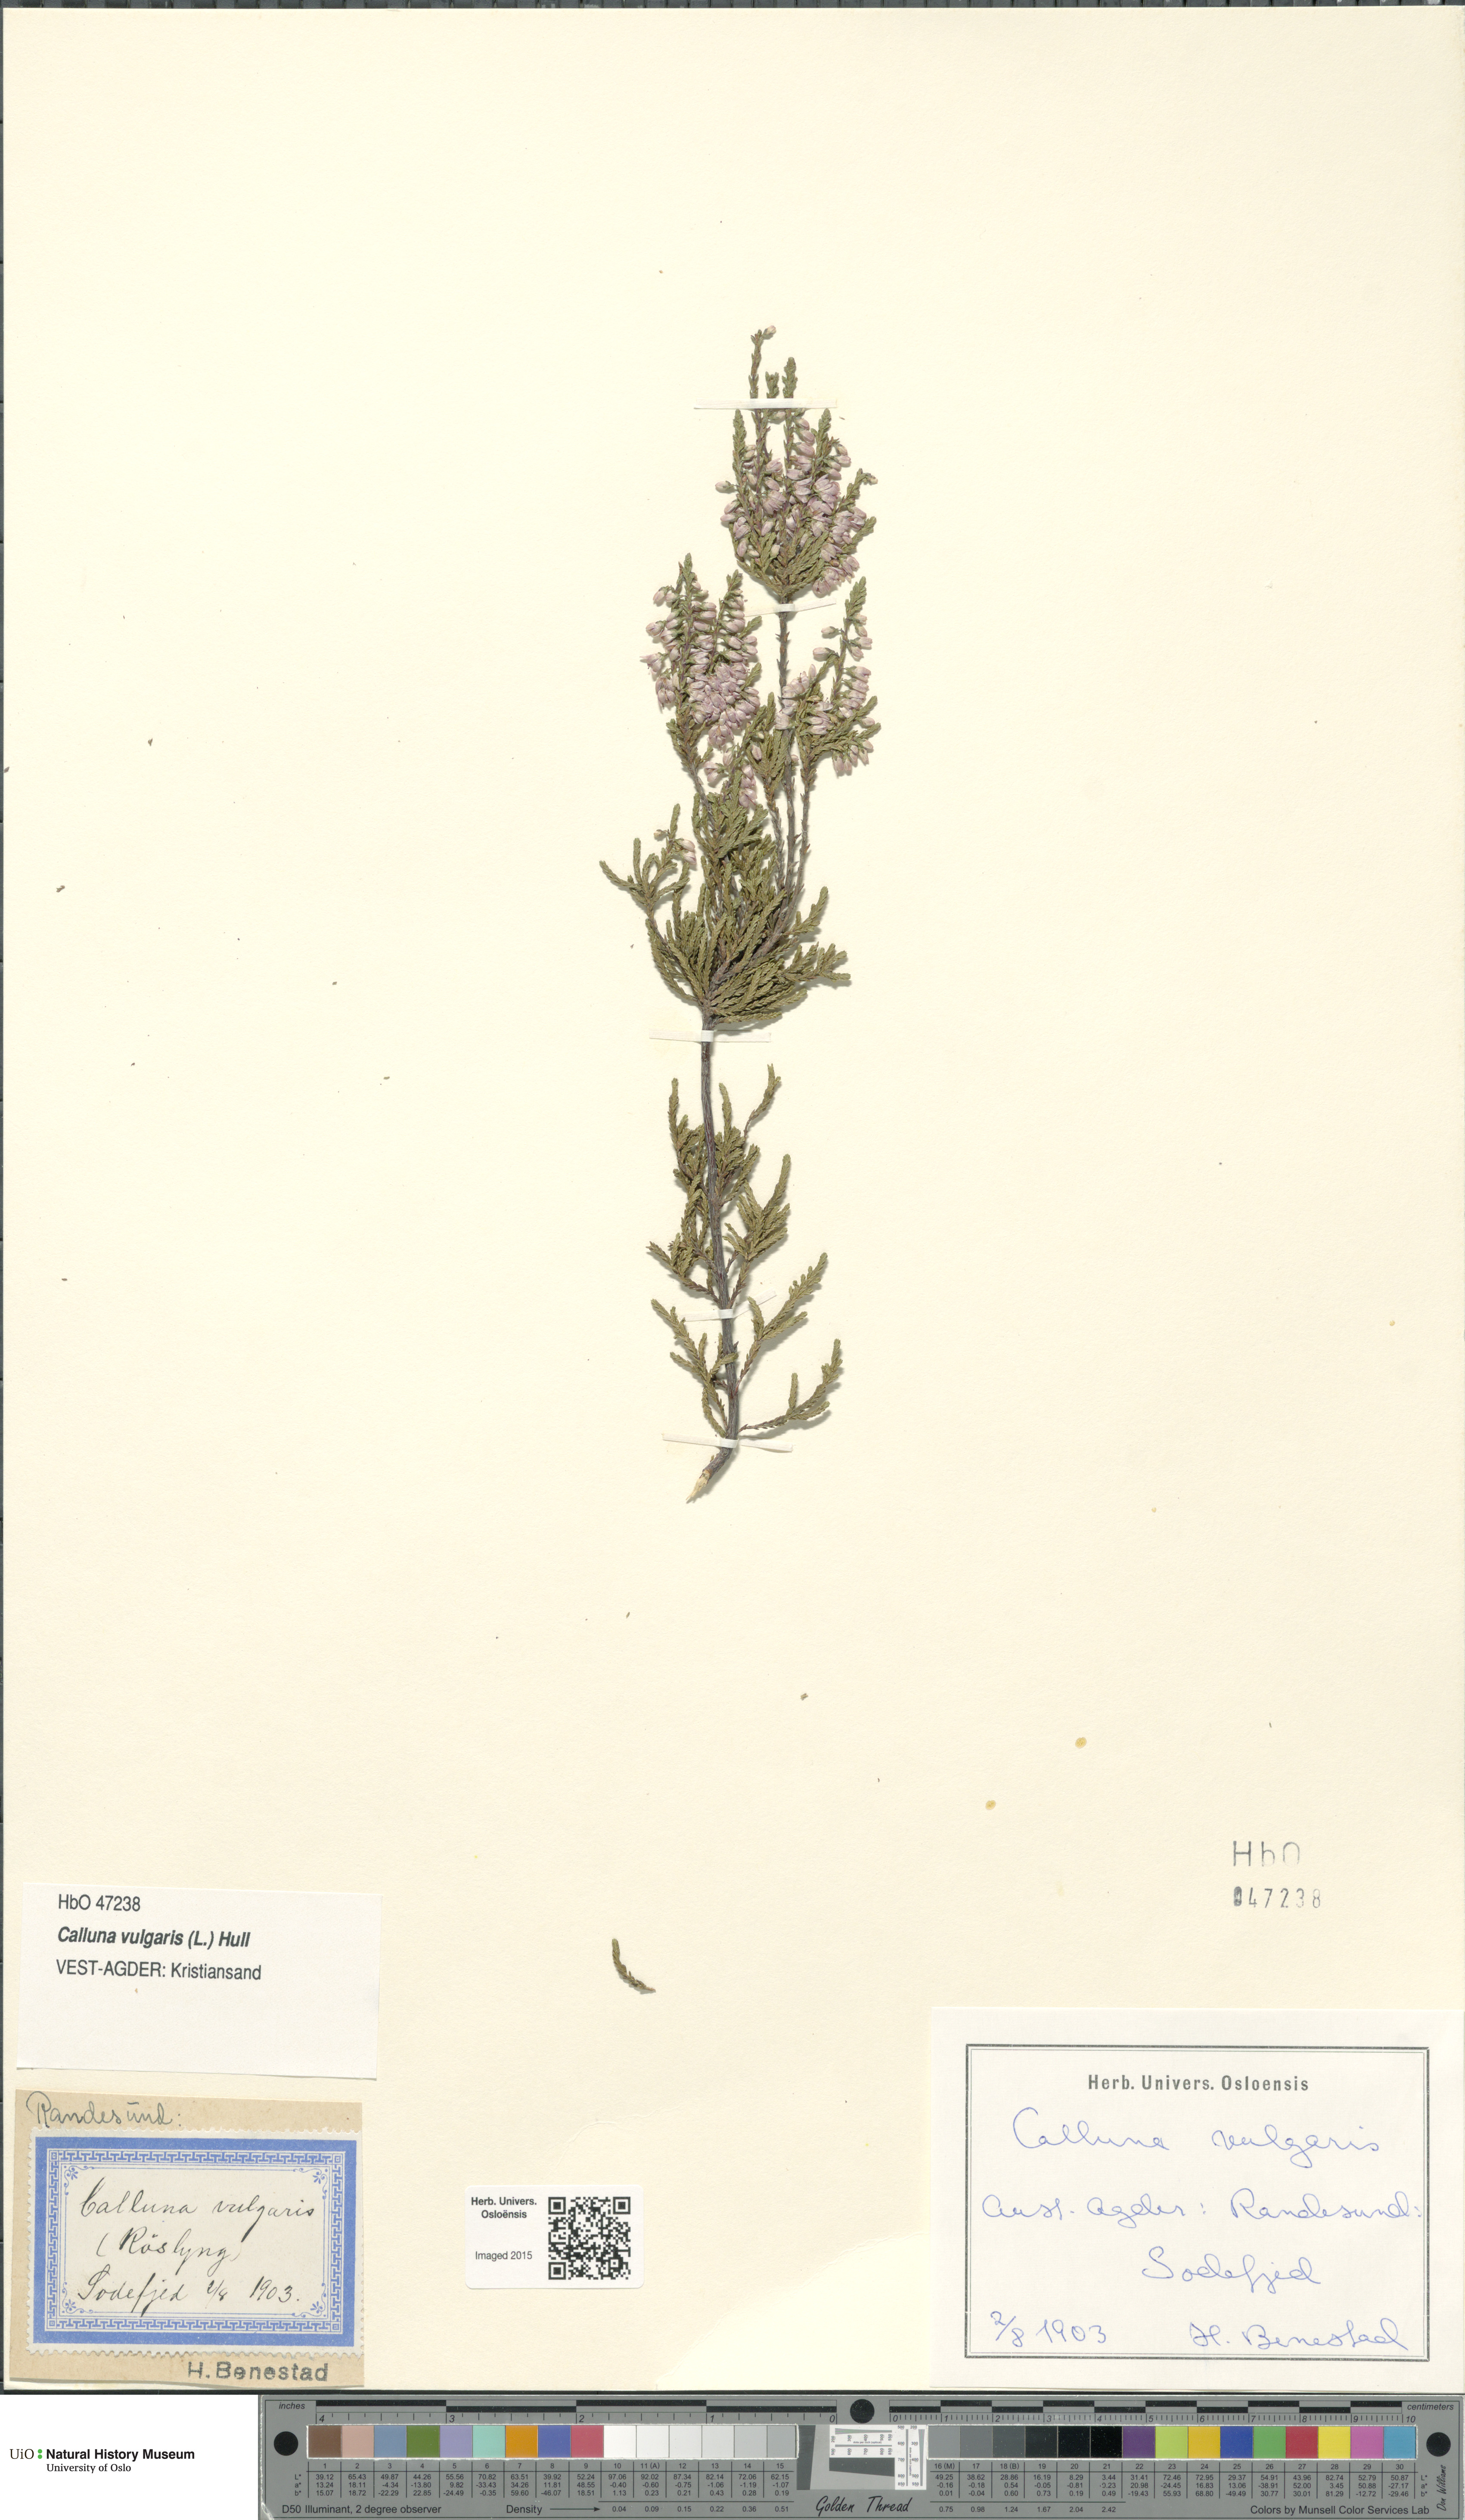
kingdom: Plantae
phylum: Tracheophyta
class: Magnoliopsida
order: Ericales
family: Ericaceae
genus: Calluna
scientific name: Calluna vulgaris
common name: Heather
